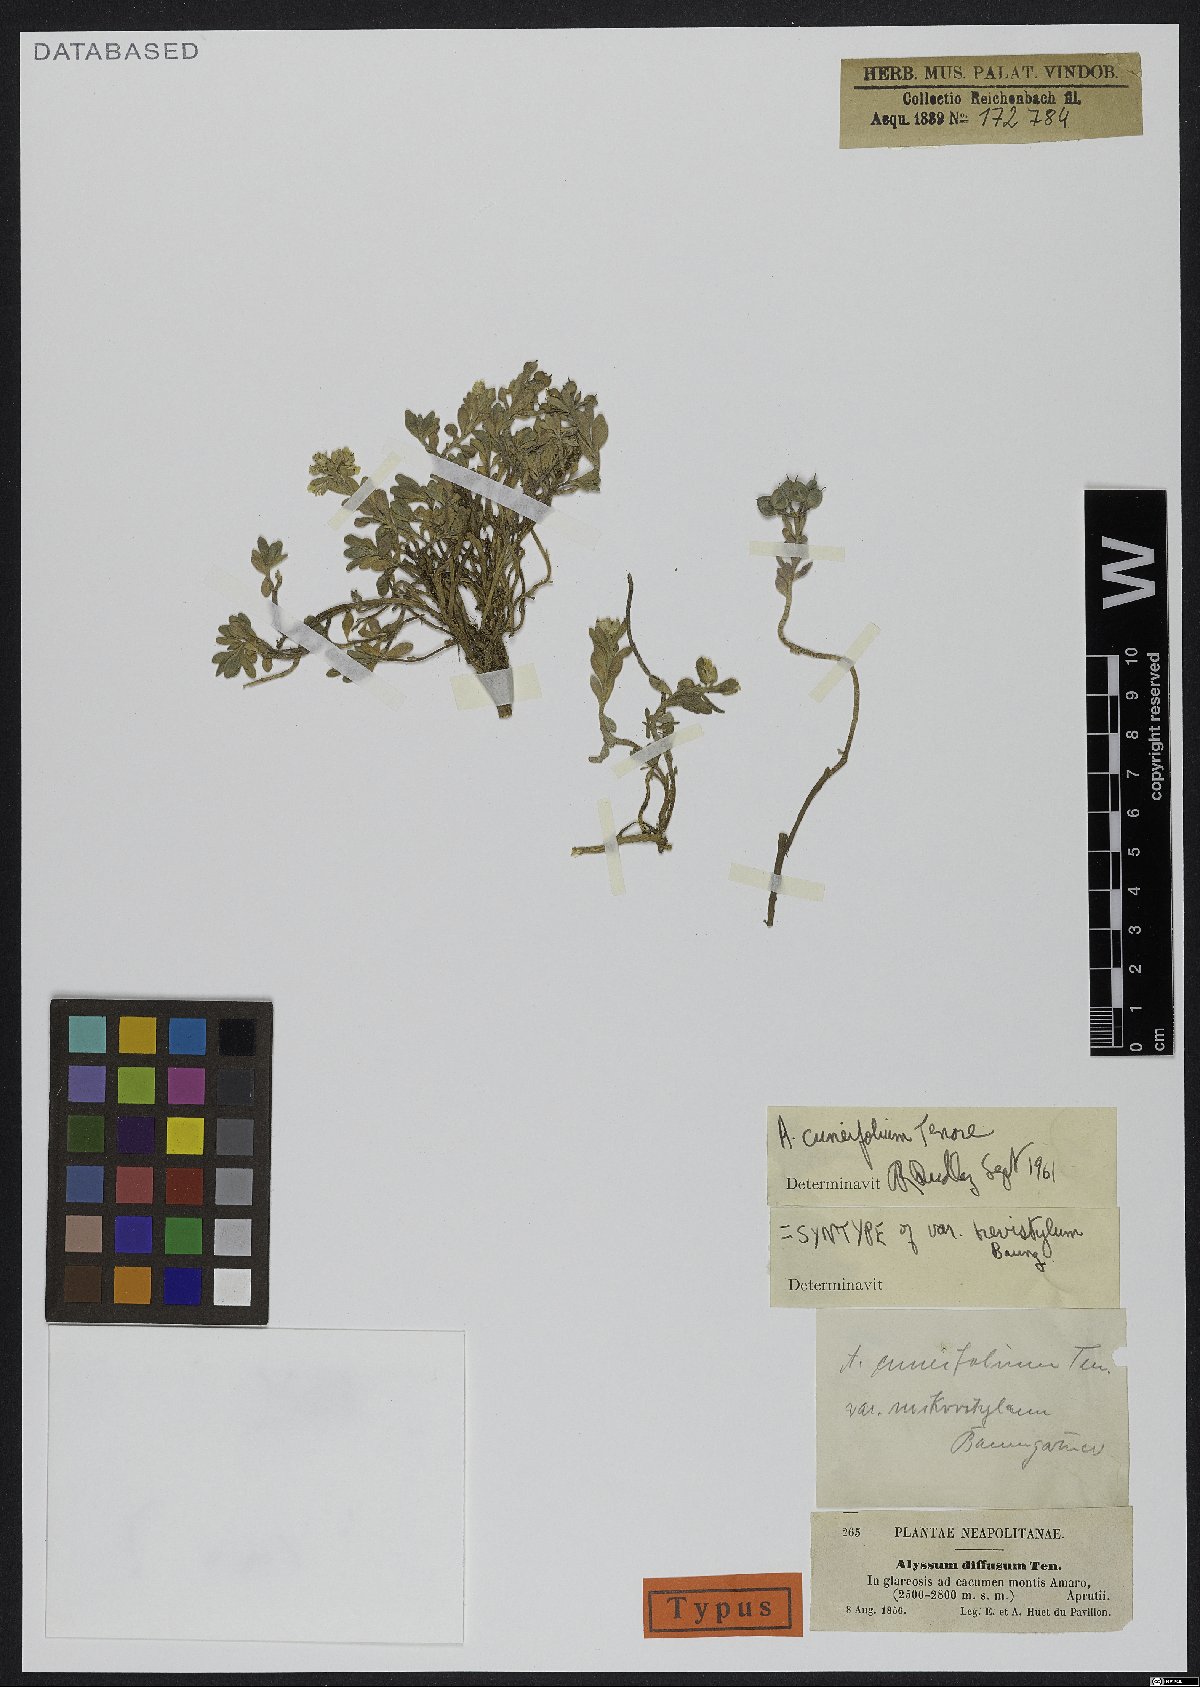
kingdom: Plantae
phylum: Tracheophyta
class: Magnoliopsida
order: Brassicales
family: Brassicaceae
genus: Alyssum
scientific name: Alyssum cuneifolium
